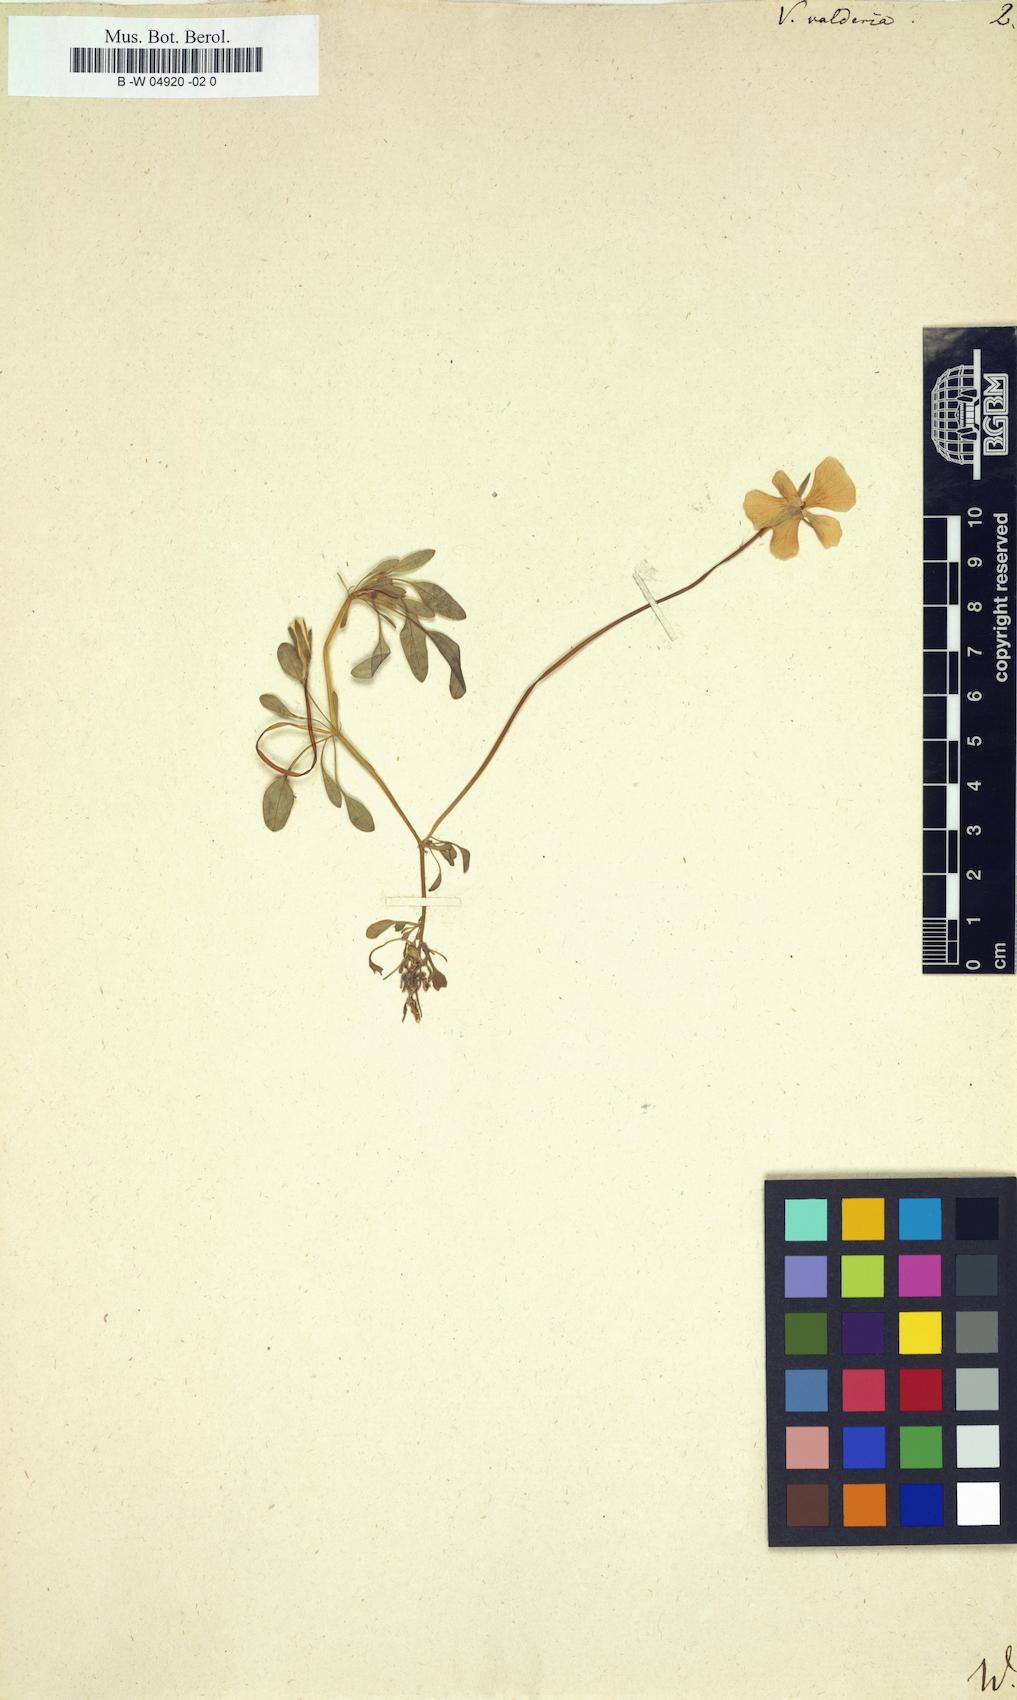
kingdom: Plantae
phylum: Tracheophyta
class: Magnoliopsida
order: Malpighiales
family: Violaceae
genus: Viola
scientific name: Viola valderia
